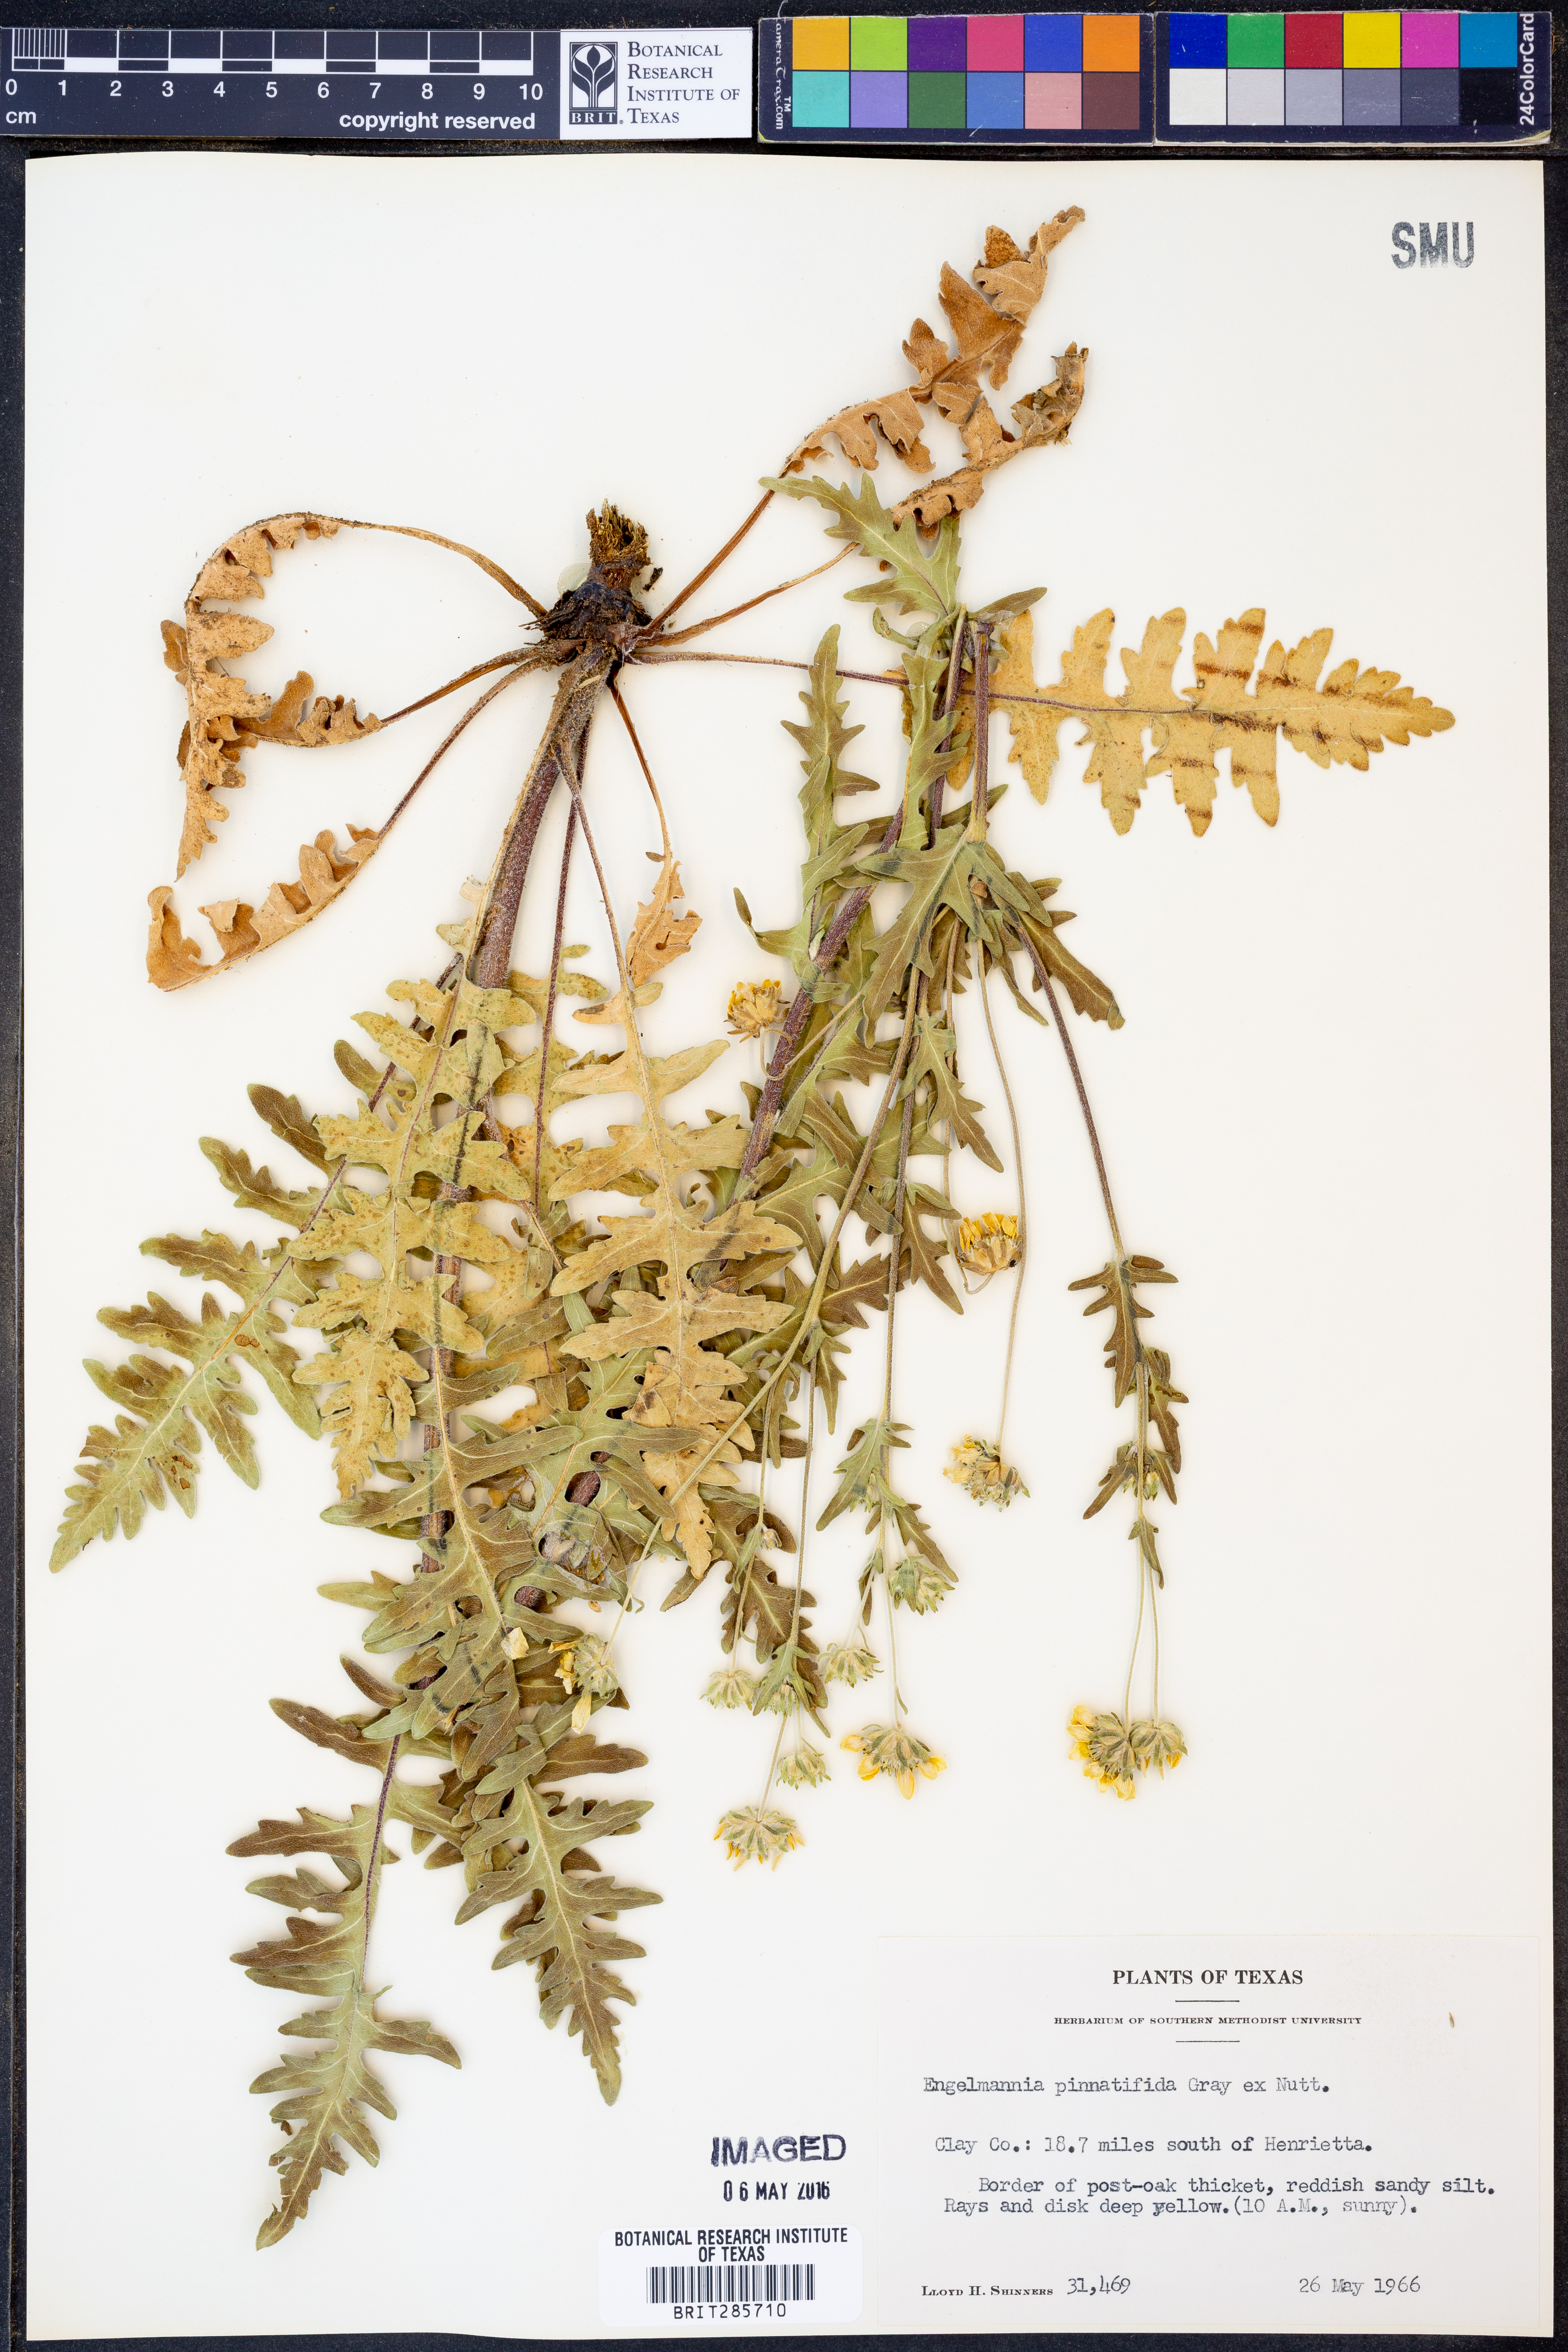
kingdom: Plantae
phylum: Tracheophyta
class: Magnoliopsida
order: Asterales
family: Asteraceae
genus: Engelmannia
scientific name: Engelmannia peristenia
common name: Engelmann's daisy
